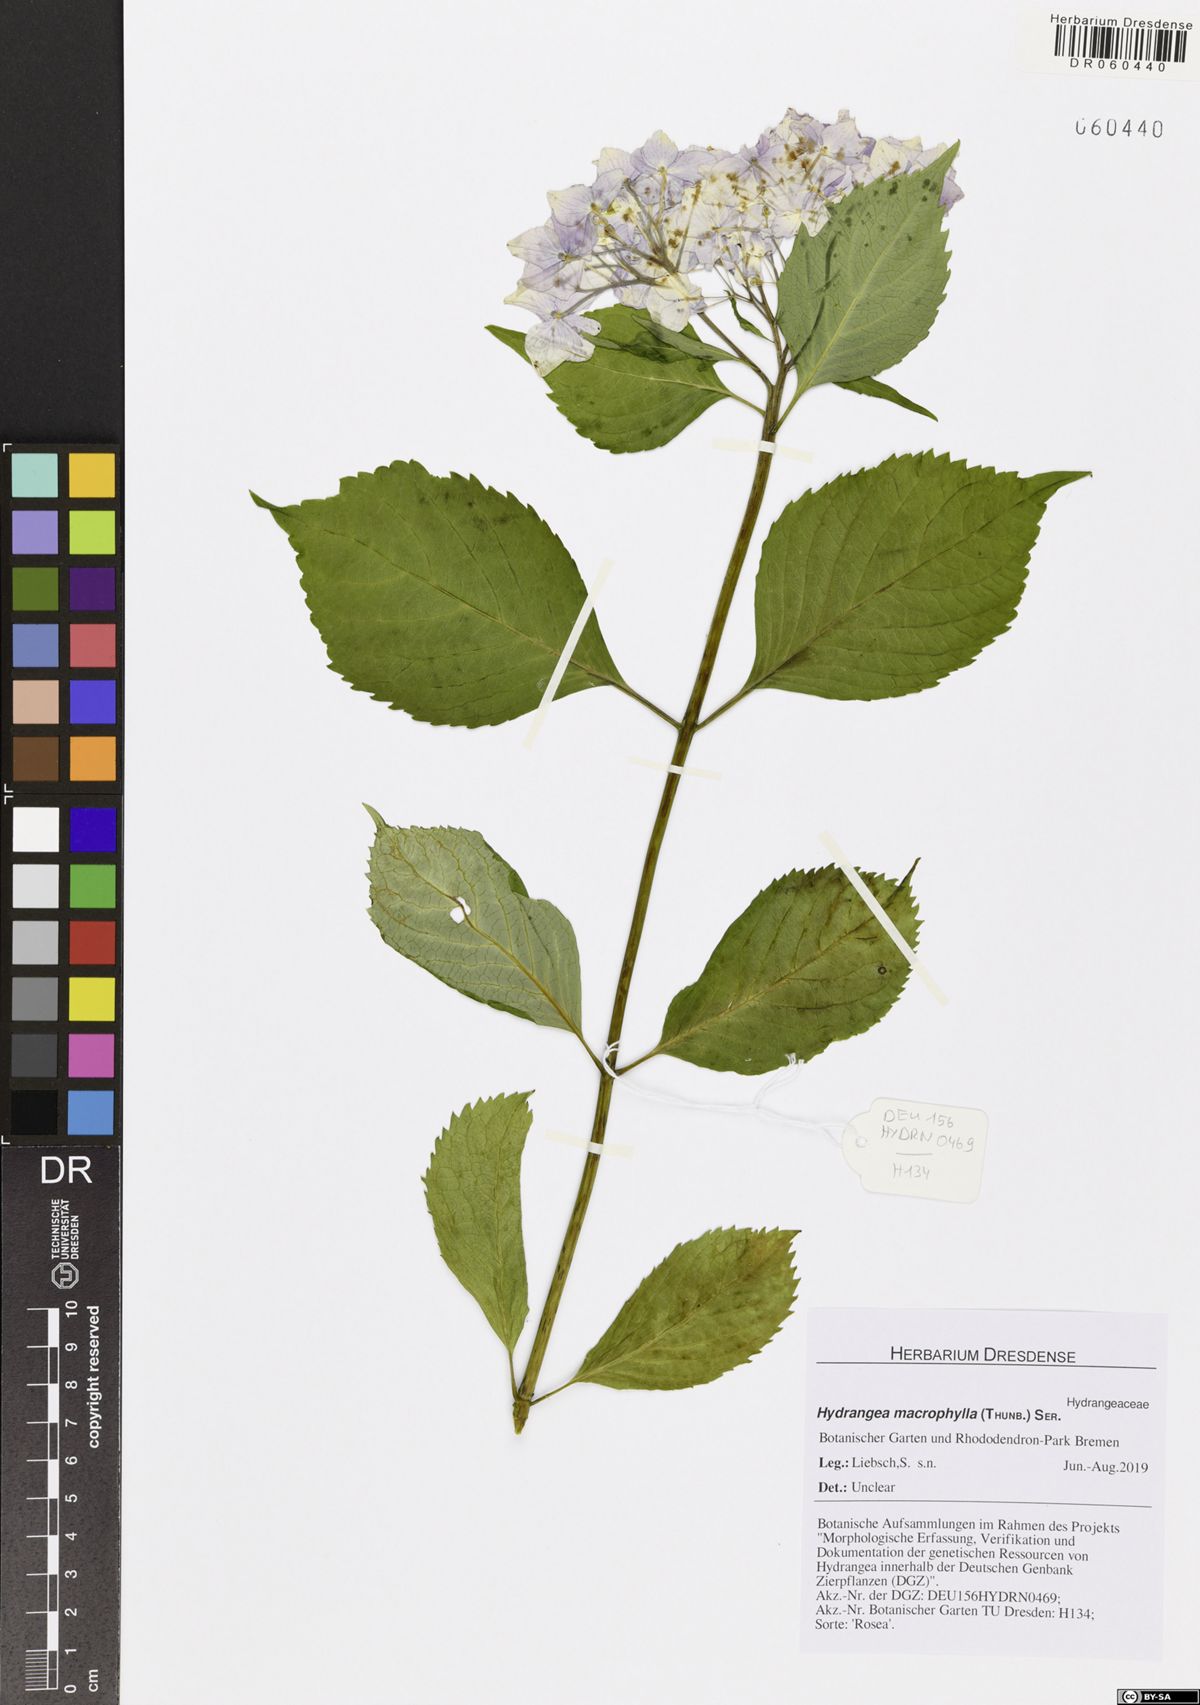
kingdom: Plantae
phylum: Tracheophyta
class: Magnoliopsida
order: Cornales
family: Hydrangeaceae
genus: Hydrangea
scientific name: Hydrangea macrophylla
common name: Hydrangea
